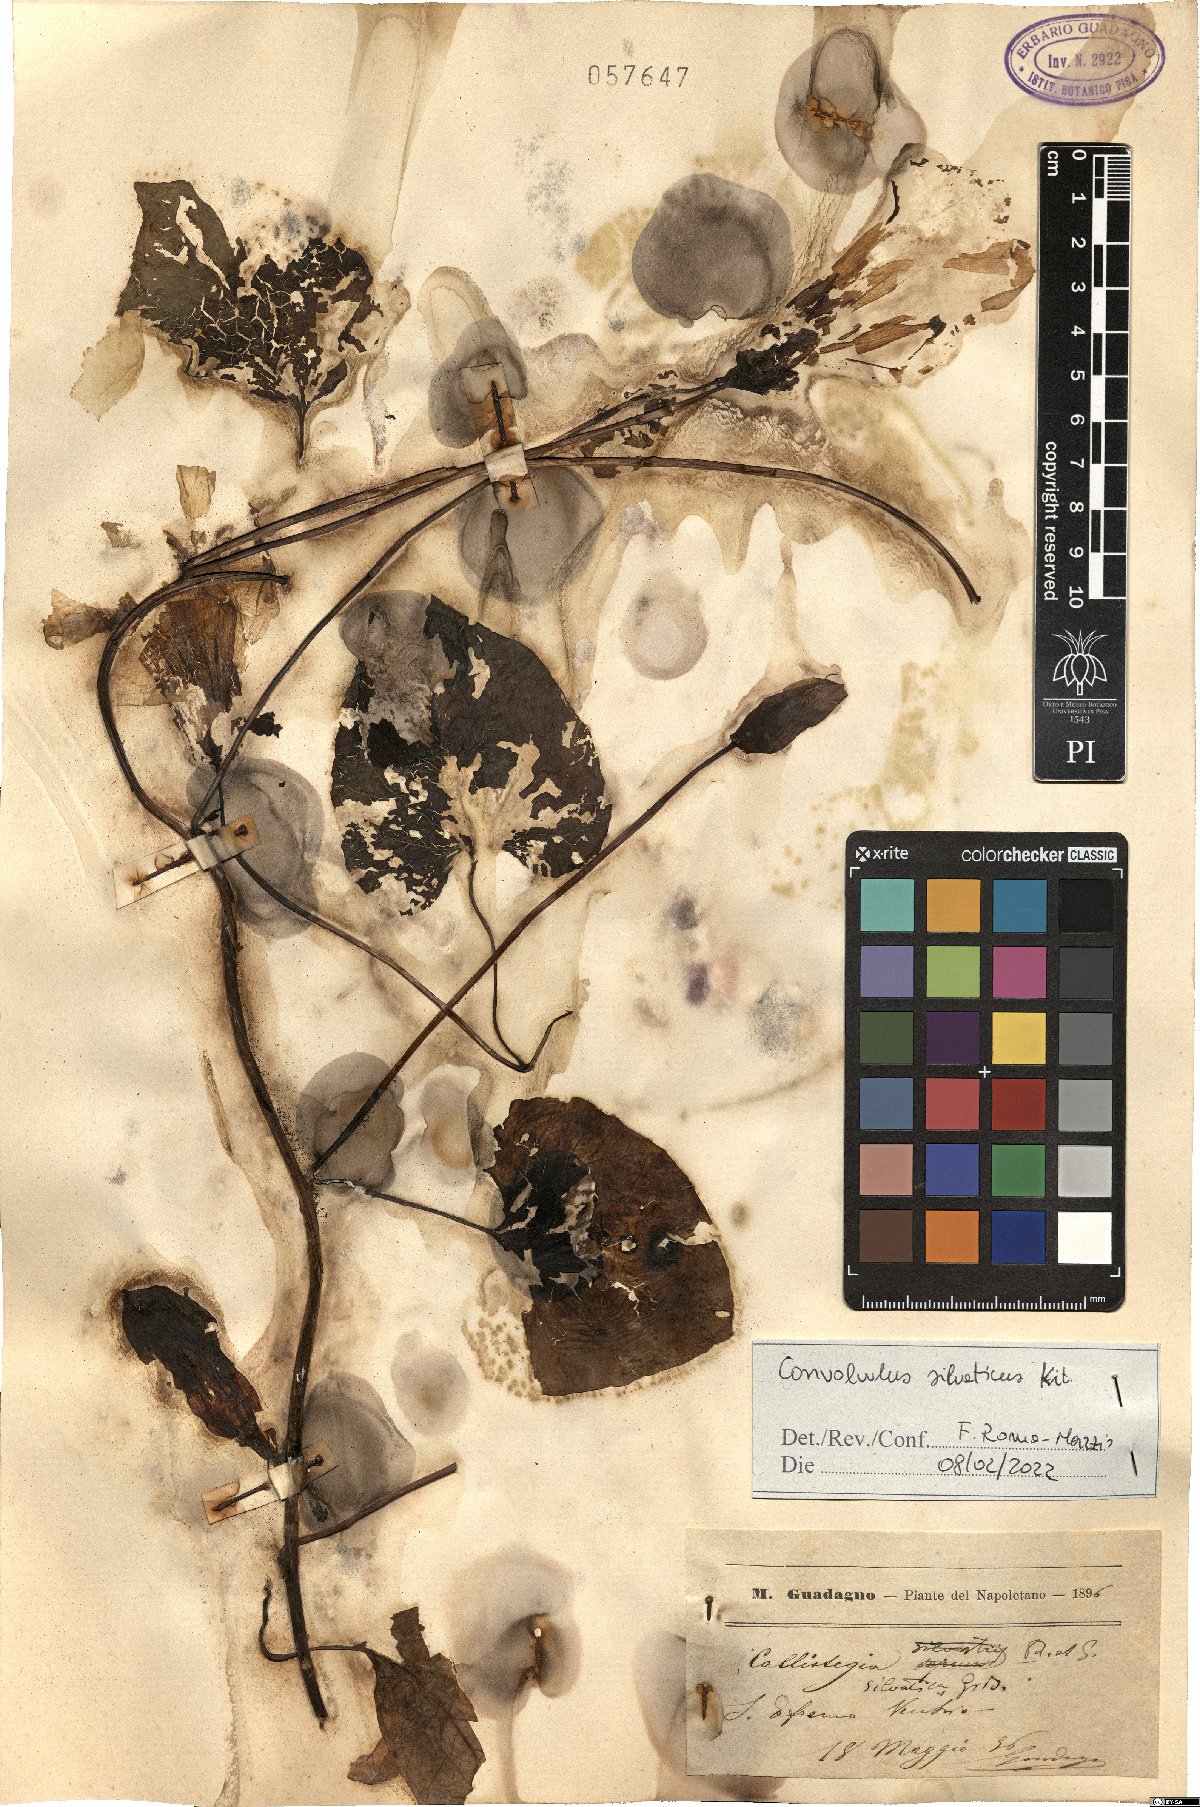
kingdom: Plantae
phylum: Tracheophyta
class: Magnoliopsida
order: Solanales
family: Convolvulaceae
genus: Calystegia
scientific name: Calystegia silvatica
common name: Large bindweed
